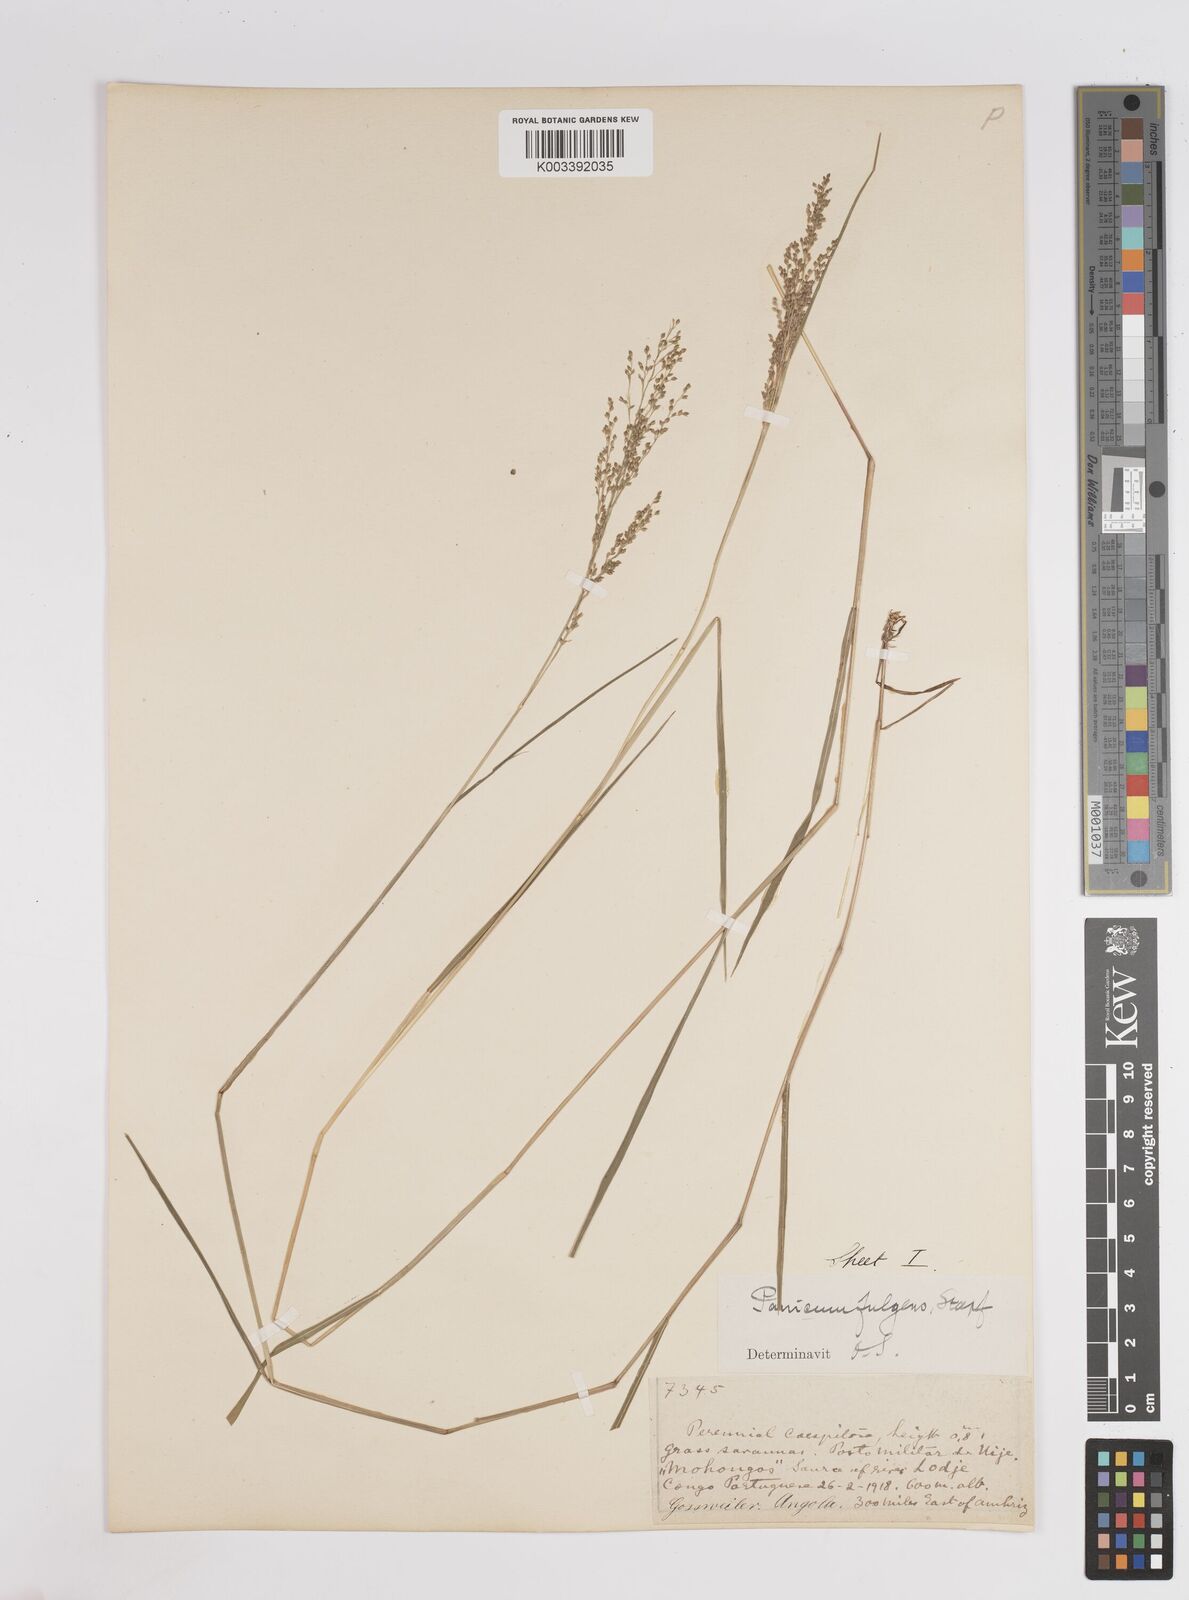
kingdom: Plantae
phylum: Tracheophyta
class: Liliopsida
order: Poales
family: Poaceae
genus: Trichanthecium
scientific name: Trichanthecium nervatum
